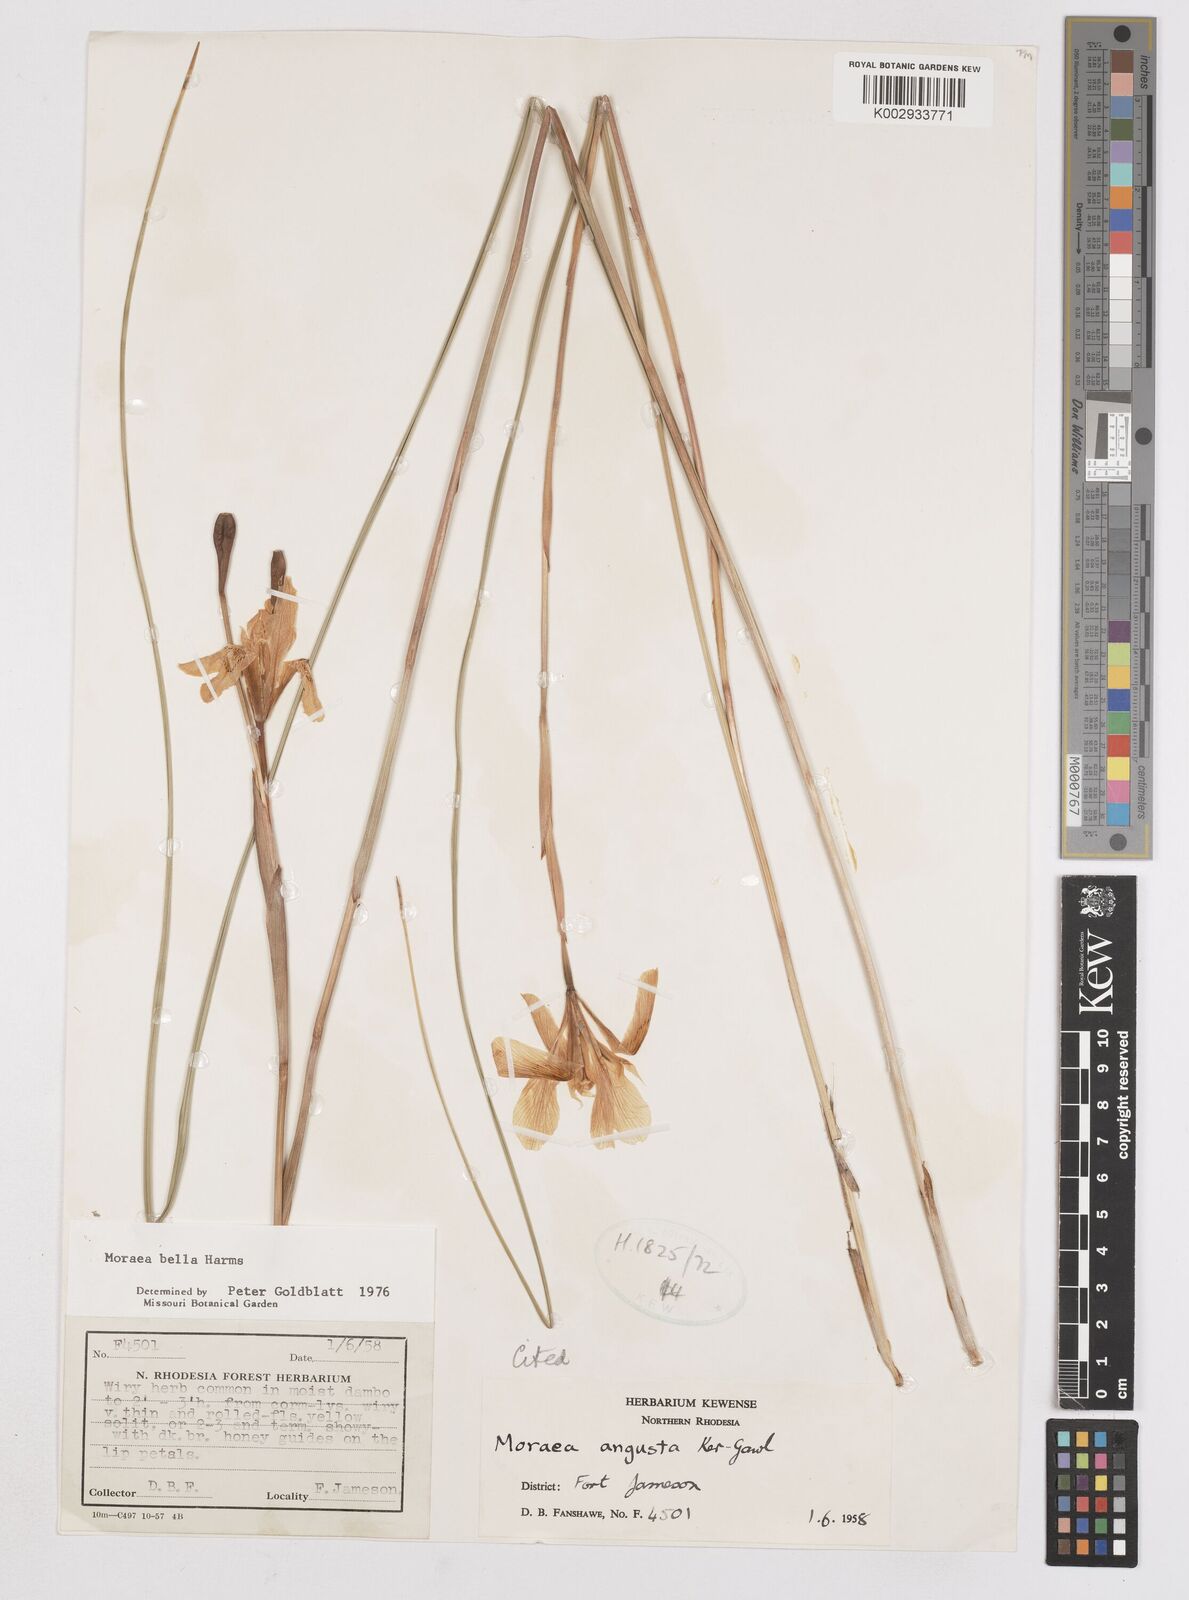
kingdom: Plantae
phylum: Tracheophyta
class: Liliopsida
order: Asparagales
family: Iridaceae
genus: Moraea
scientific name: Moraea bella
